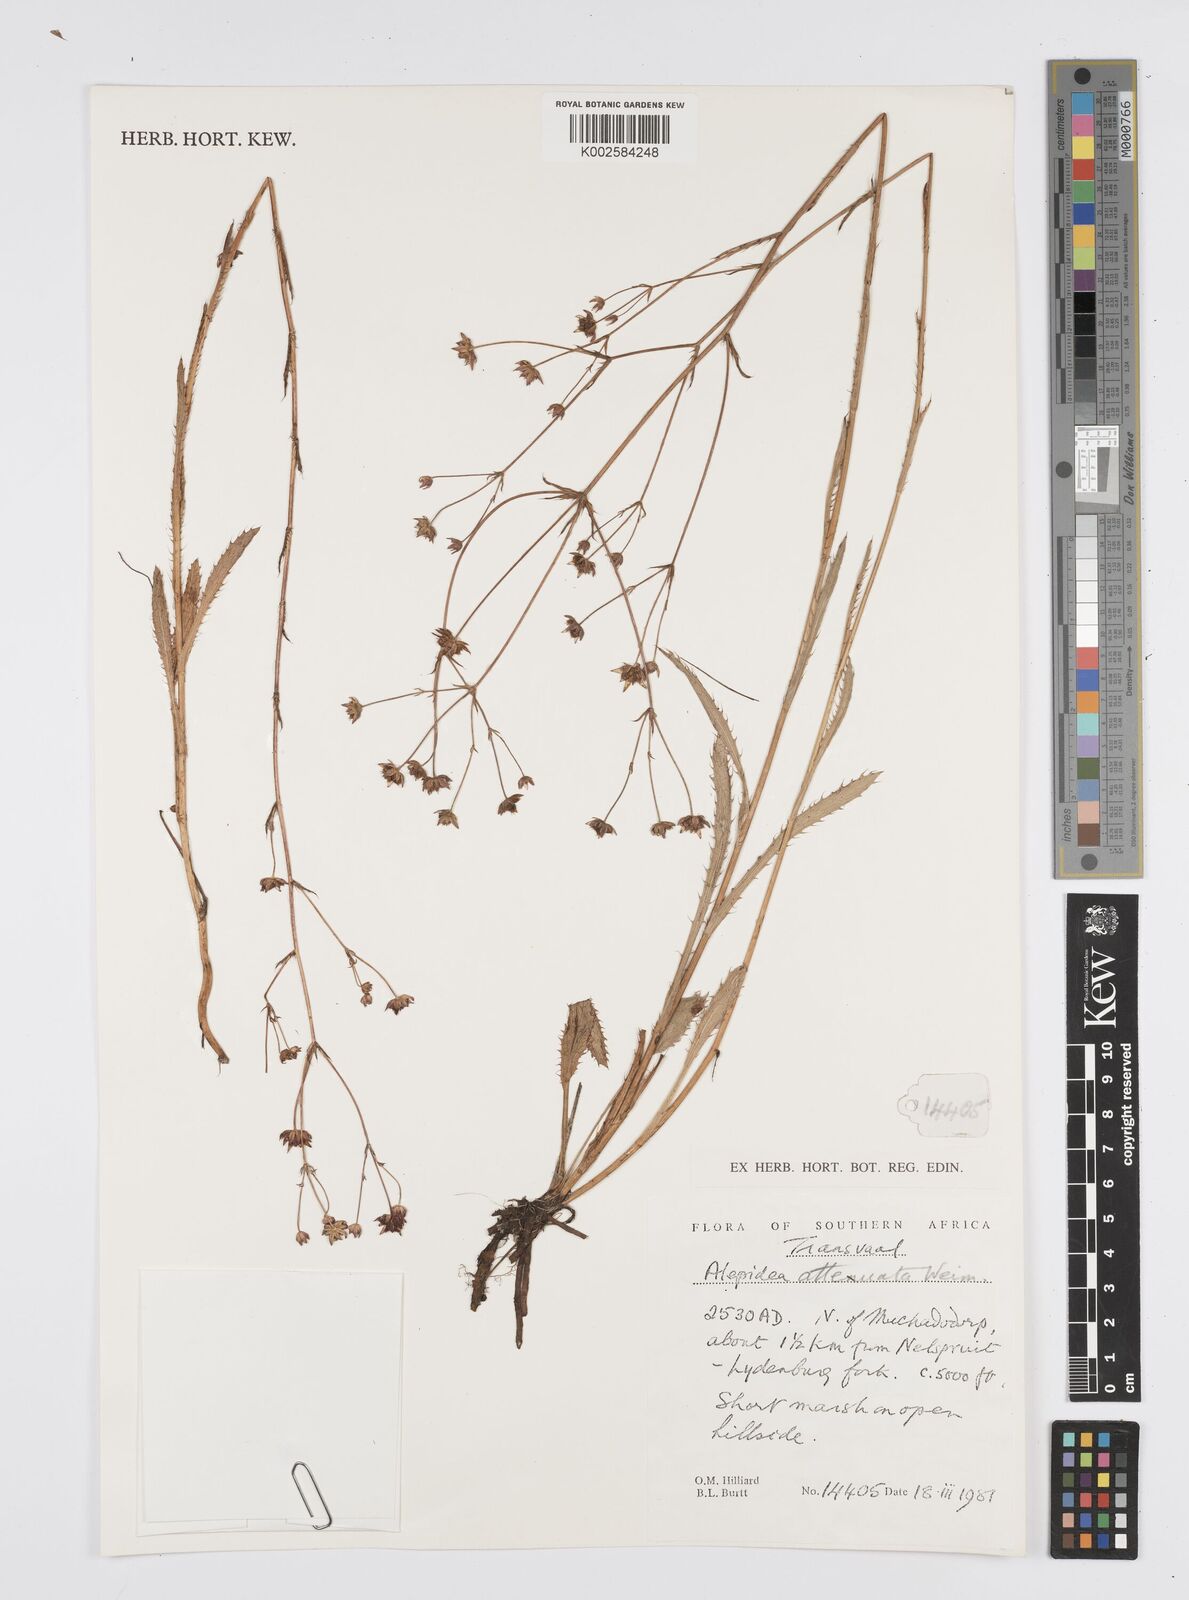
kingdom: Plantae
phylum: Tracheophyta
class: Magnoliopsida
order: Apiales
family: Apiaceae
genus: Alepidea
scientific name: Alepidea attenuata
